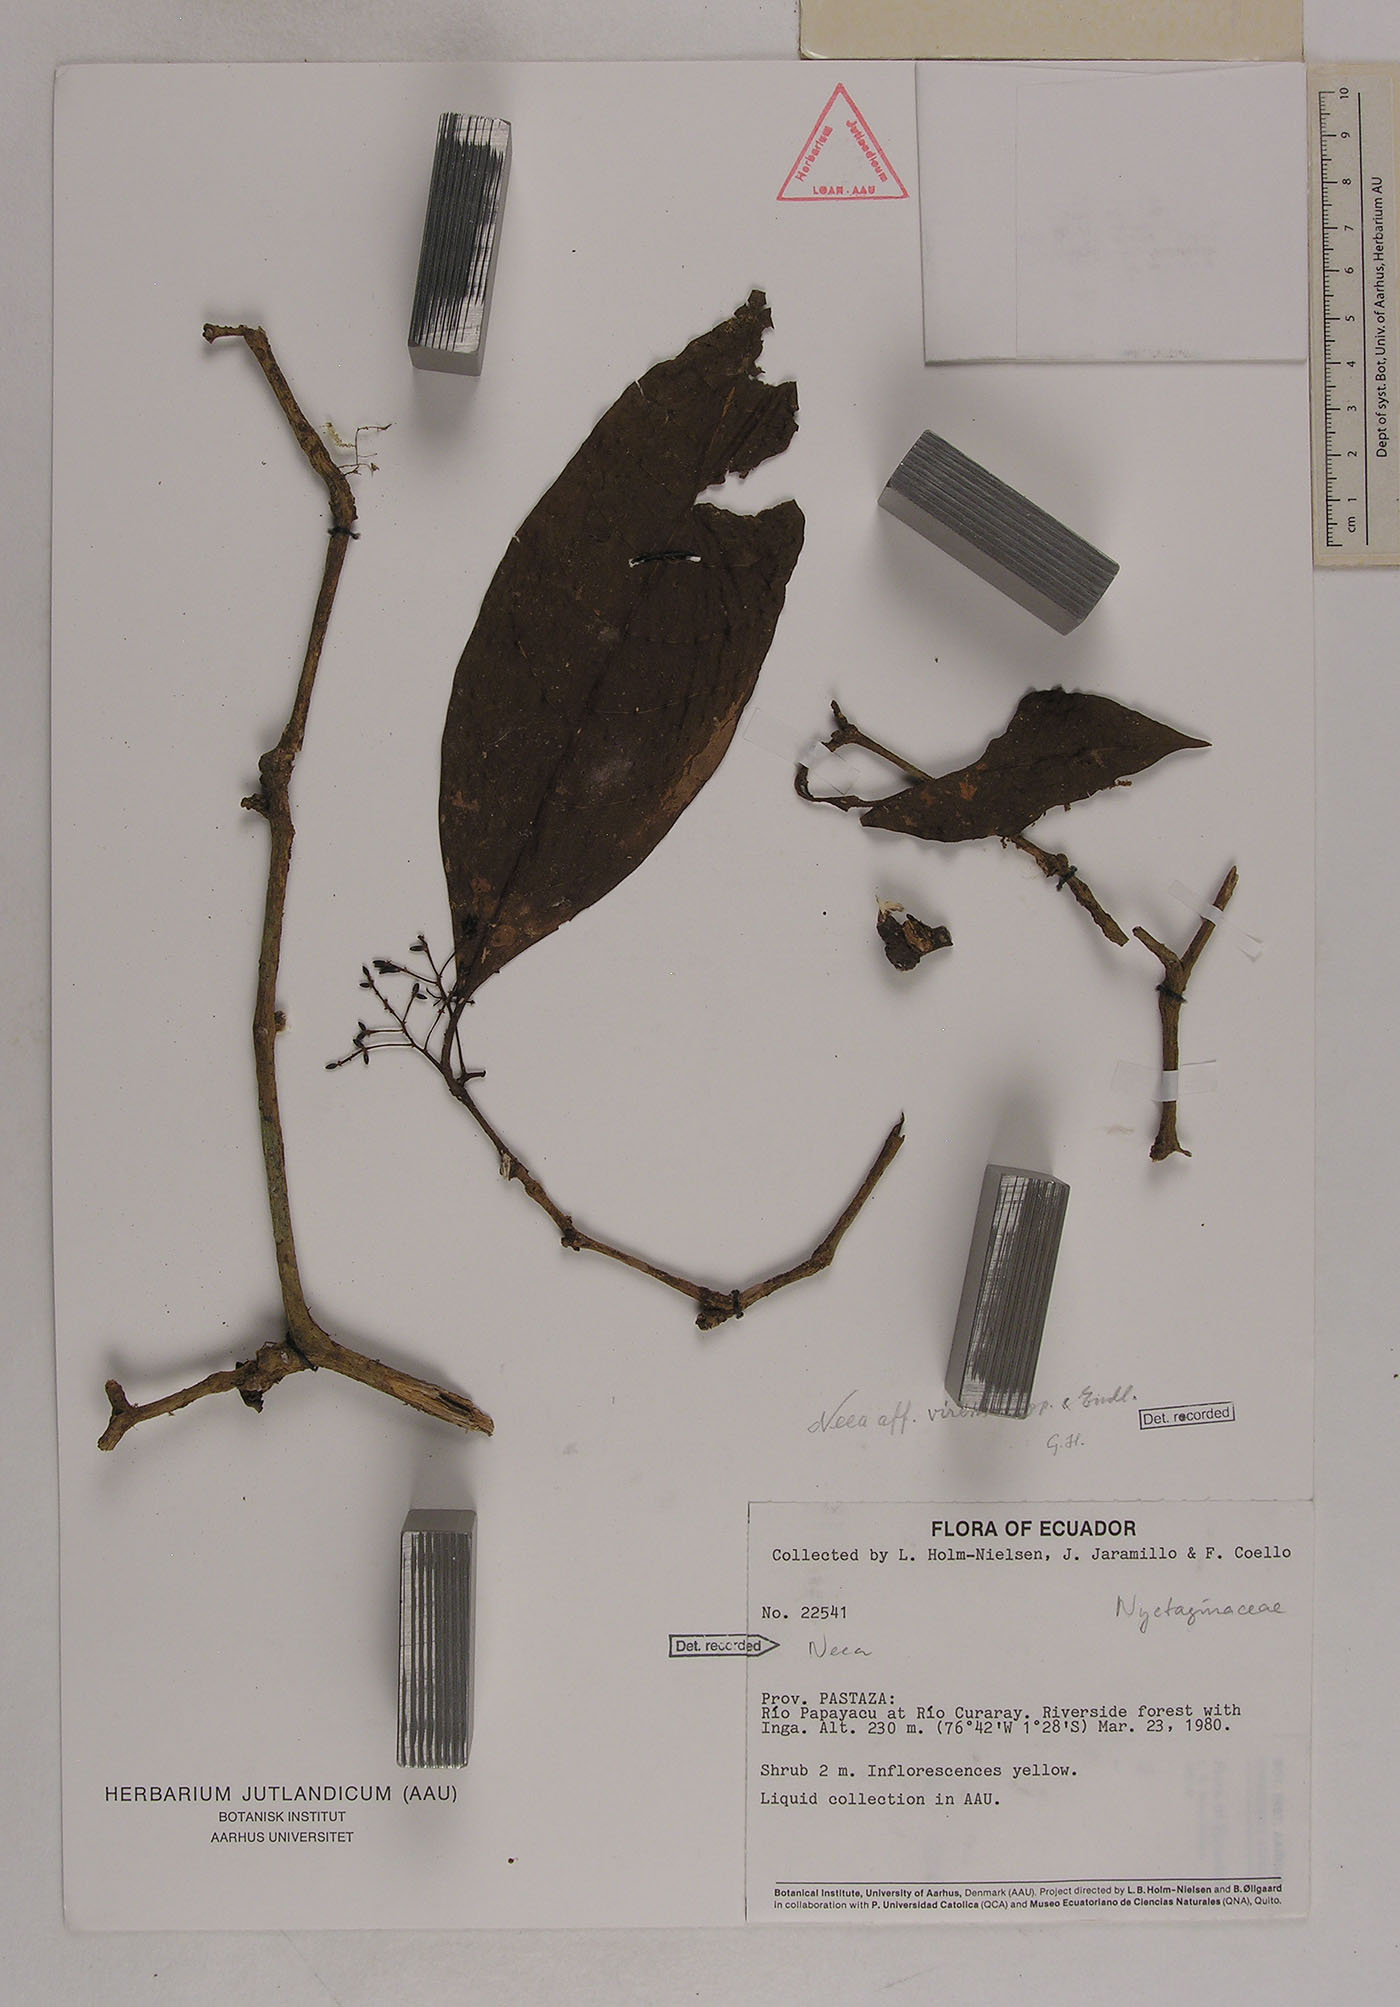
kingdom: Plantae
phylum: Tracheophyta
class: Magnoliopsida
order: Caryophyllales
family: Nyctaginaceae
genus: Neea
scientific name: Neea virens
